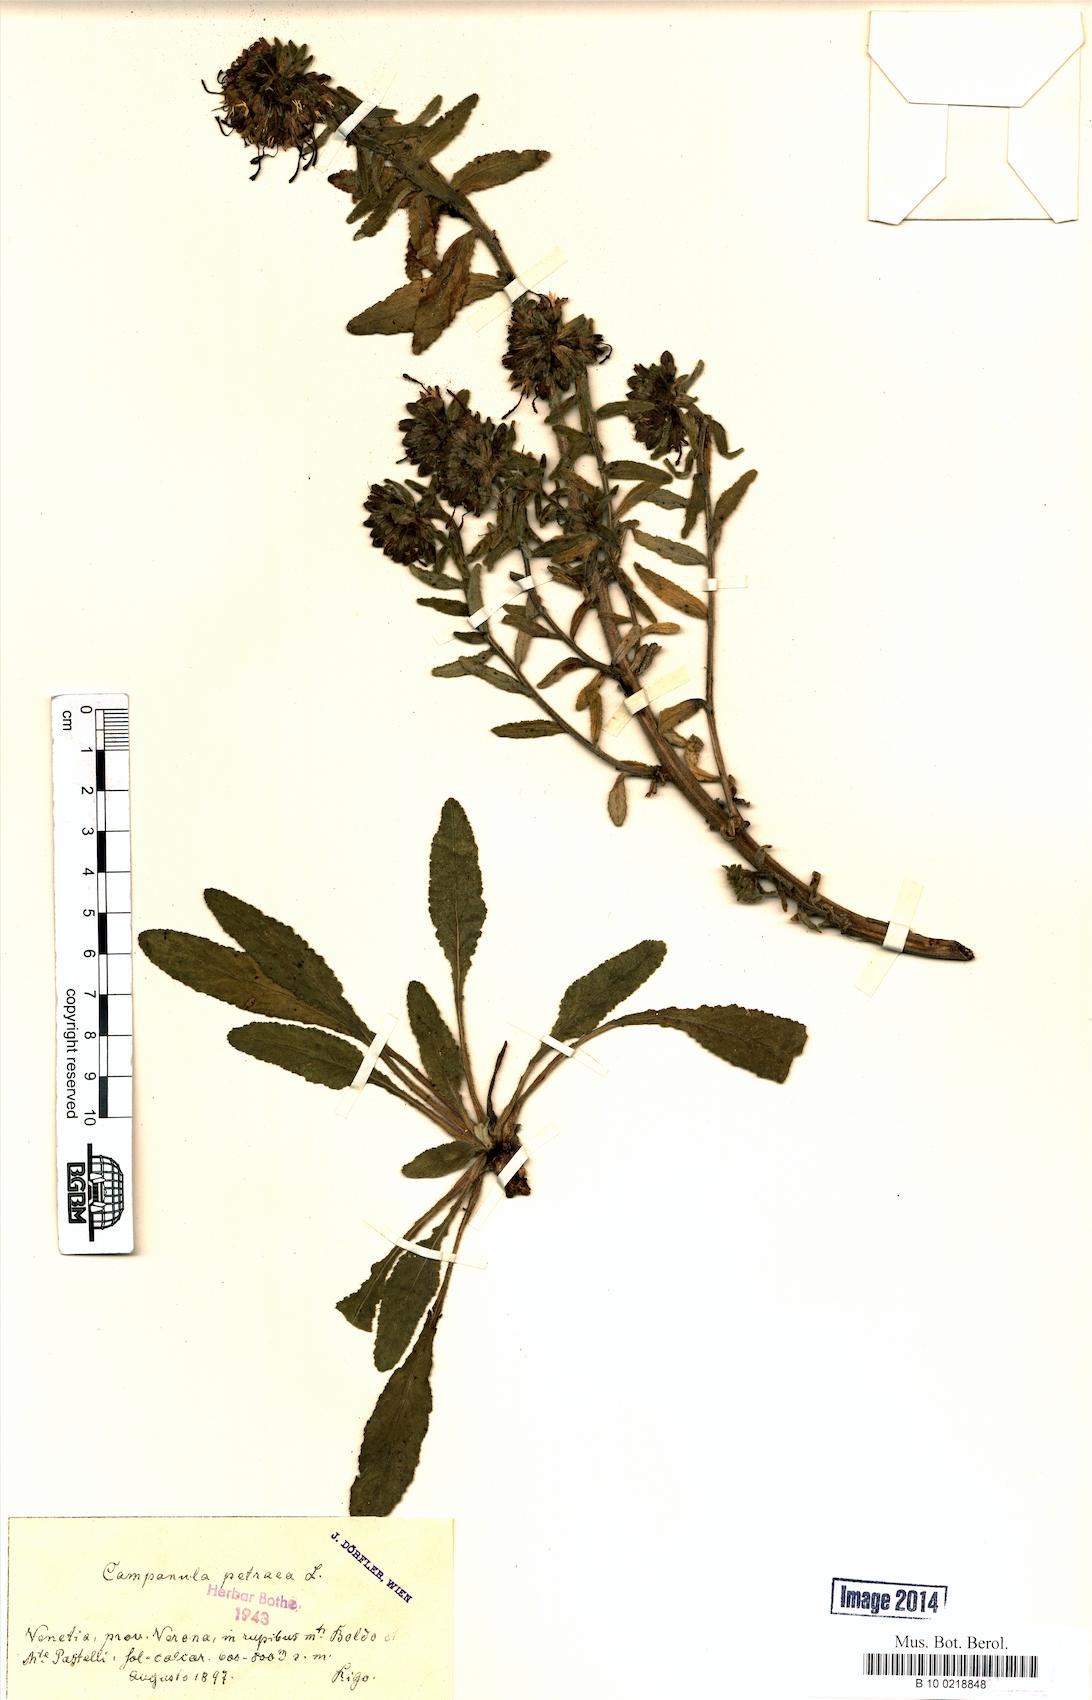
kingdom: Plantae
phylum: Tracheophyta
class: Magnoliopsida
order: Asterales
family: Campanulaceae
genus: Campanula
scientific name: Campanula petraea
